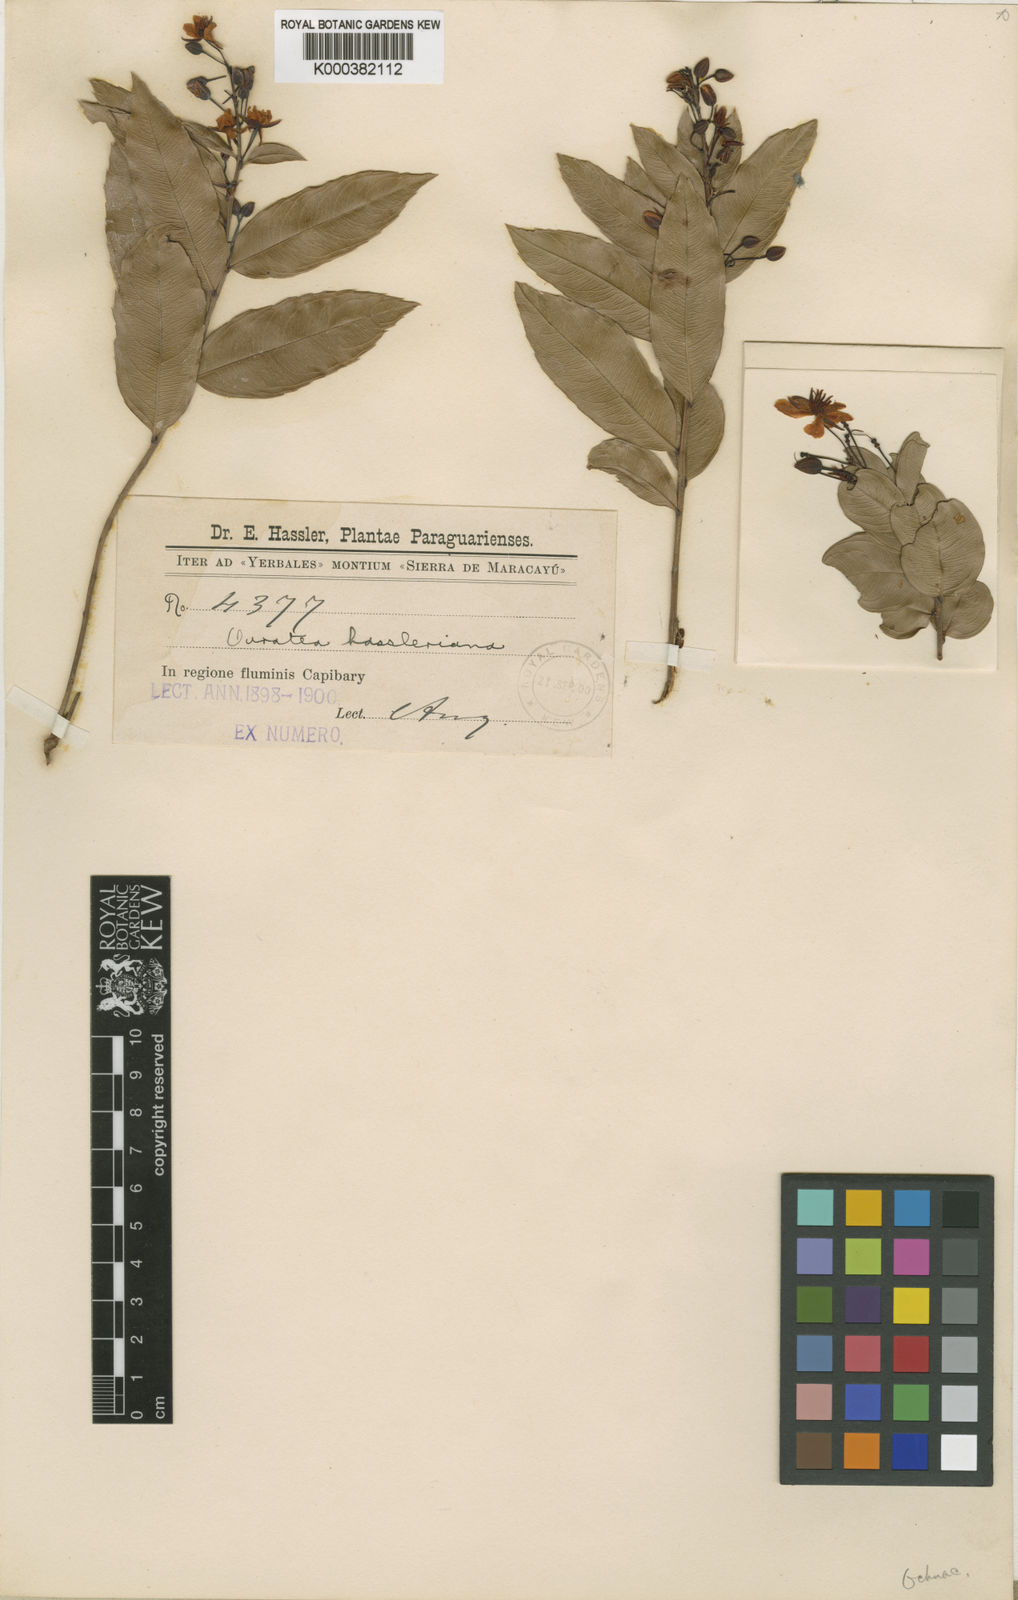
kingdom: Plantae
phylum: Tracheophyta
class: Magnoliopsida
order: Malpighiales
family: Ochnaceae
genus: Ouratea
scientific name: Ouratea hassleriana
